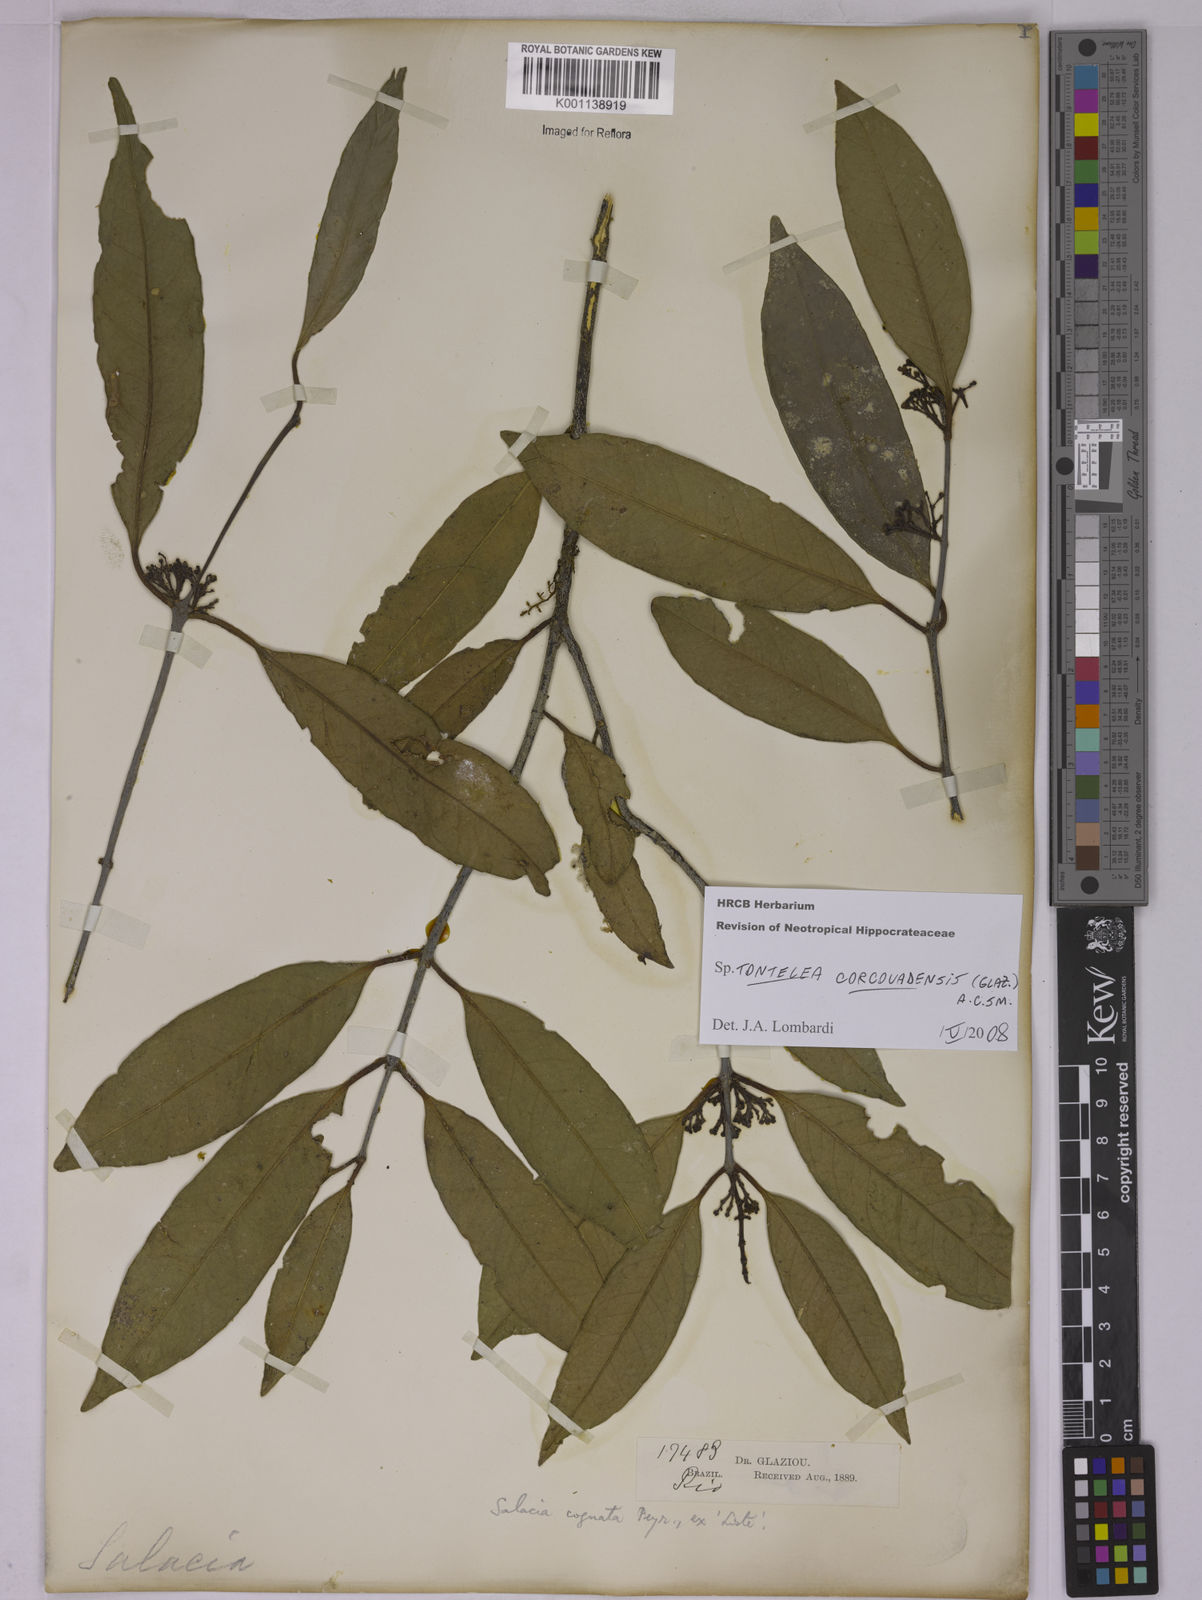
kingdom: Plantae
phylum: Tracheophyta
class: Magnoliopsida
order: Celastrales
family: Celastraceae
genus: Tontelea
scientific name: Tontelea corcovadensis
